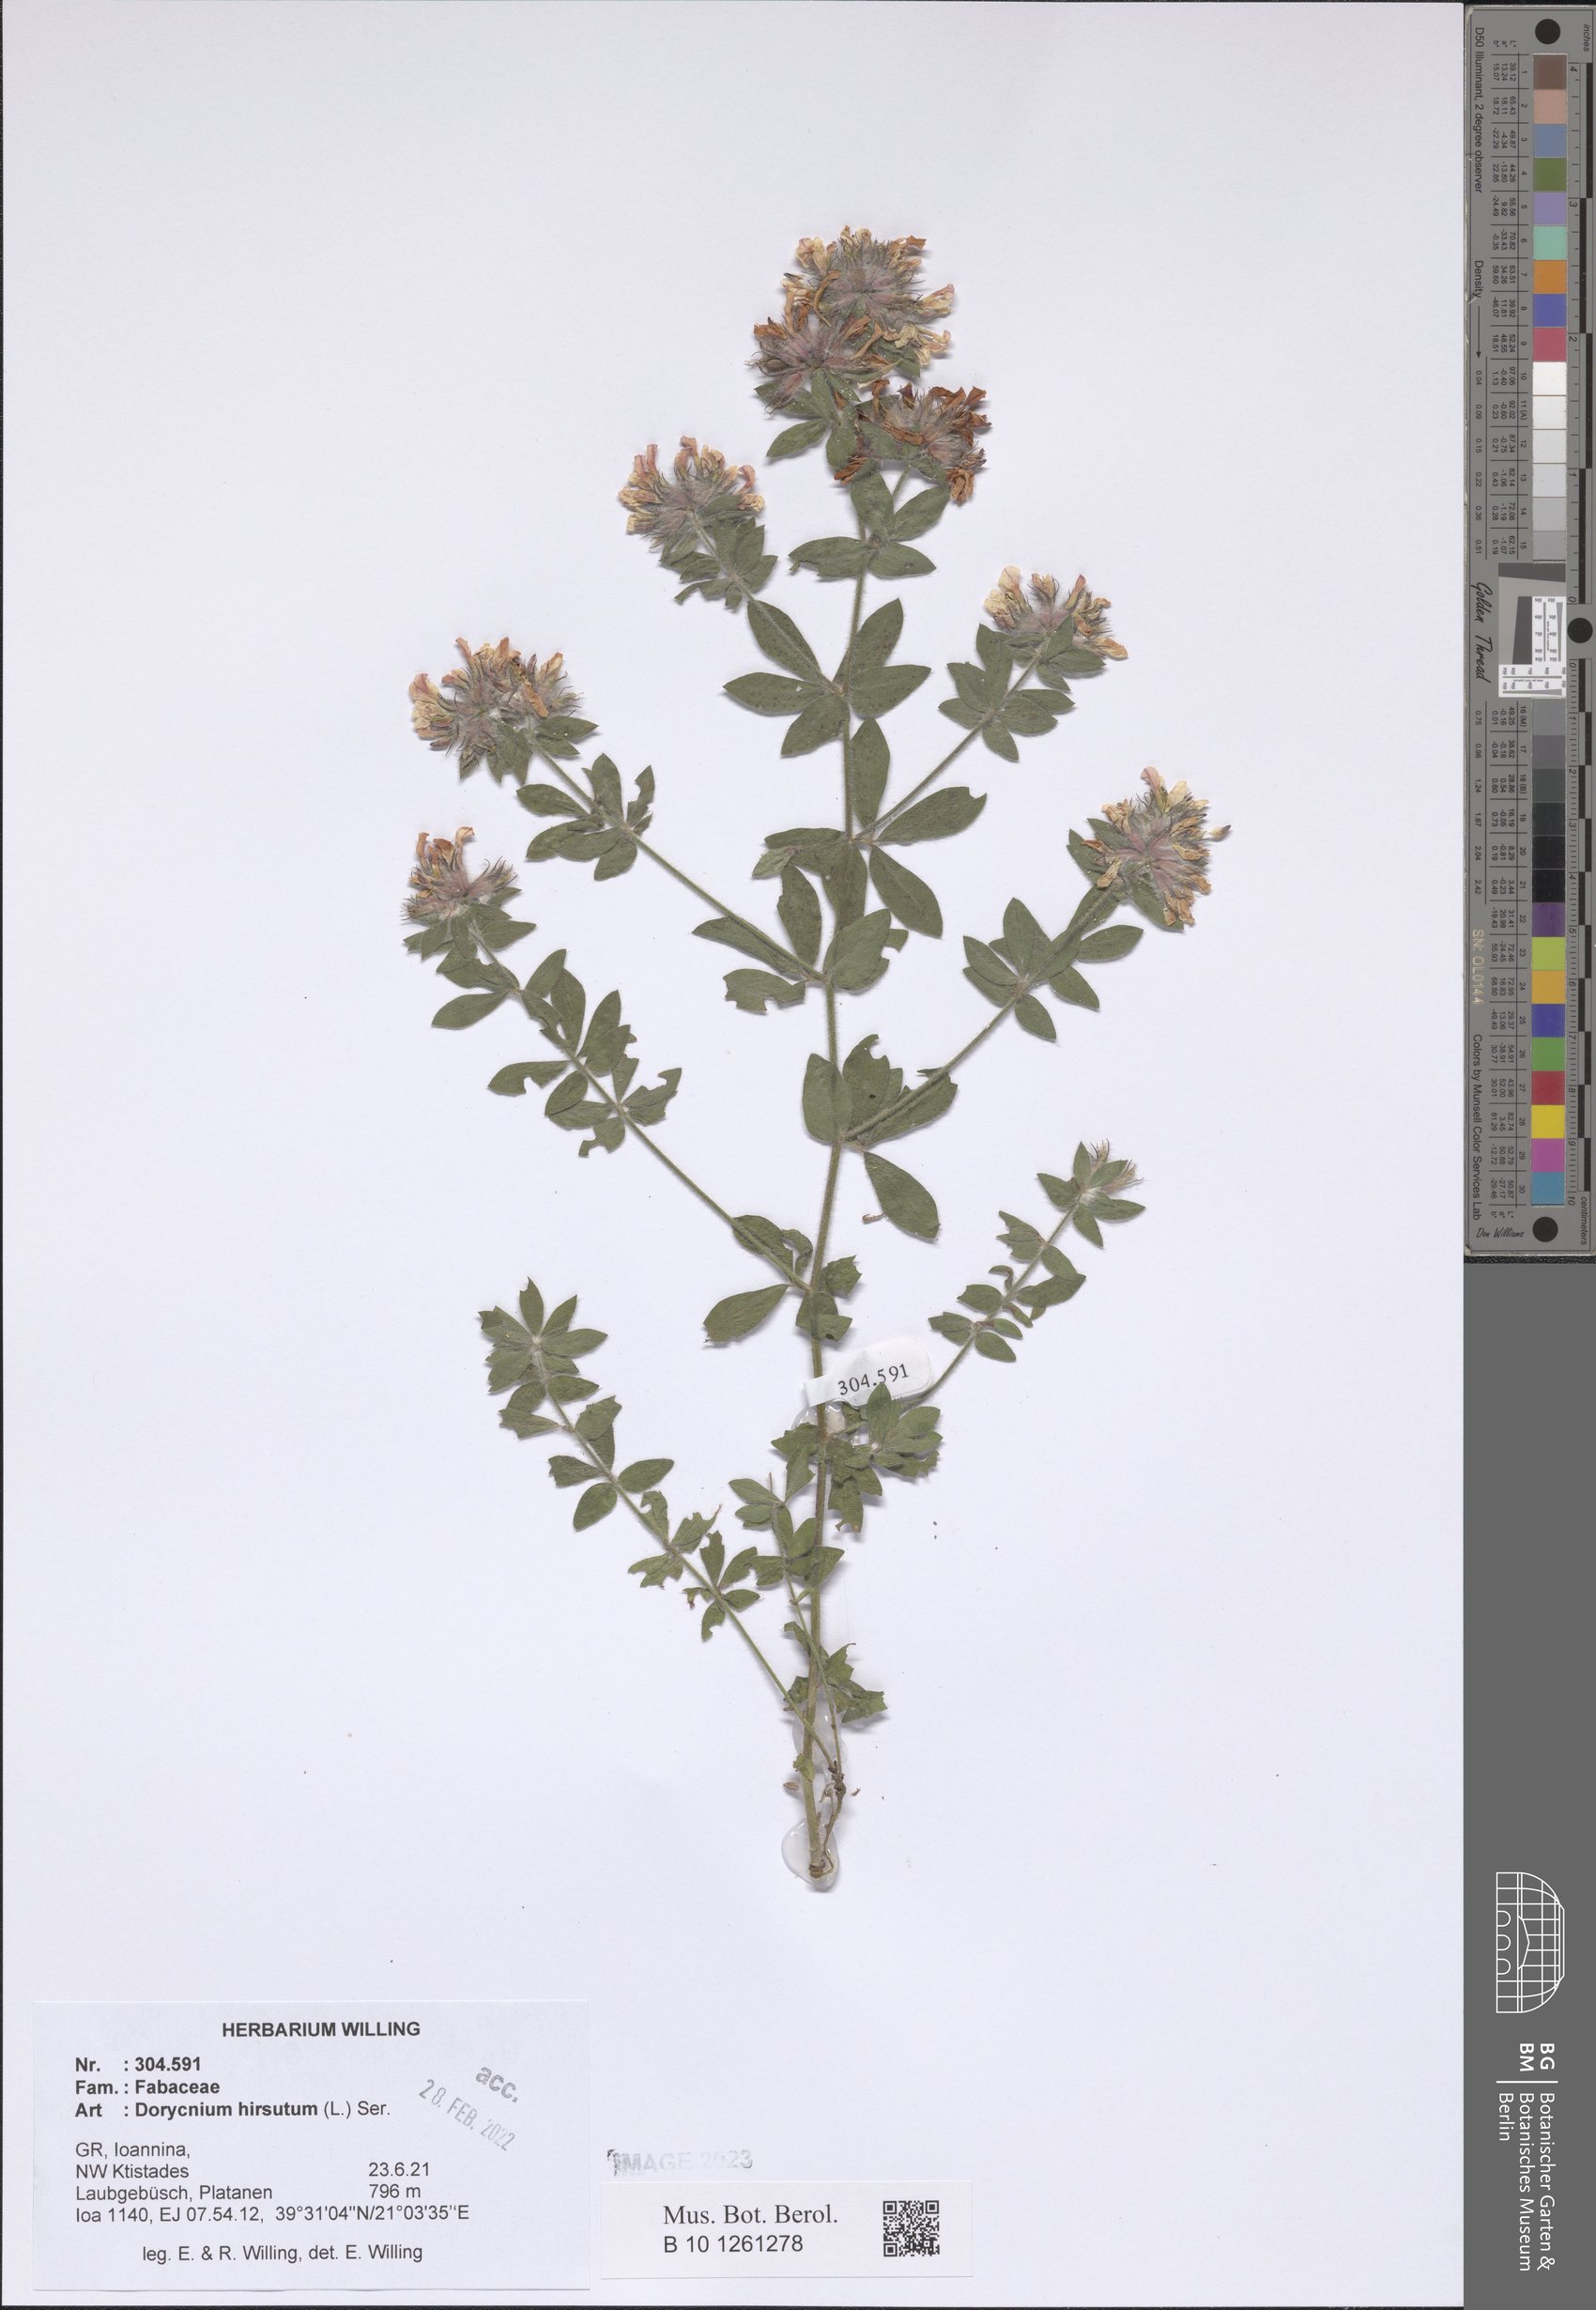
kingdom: Plantae
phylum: Tracheophyta
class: Magnoliopsida
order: Fabales
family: Fabaceae
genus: Lotus
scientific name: Lotus hirsutus
